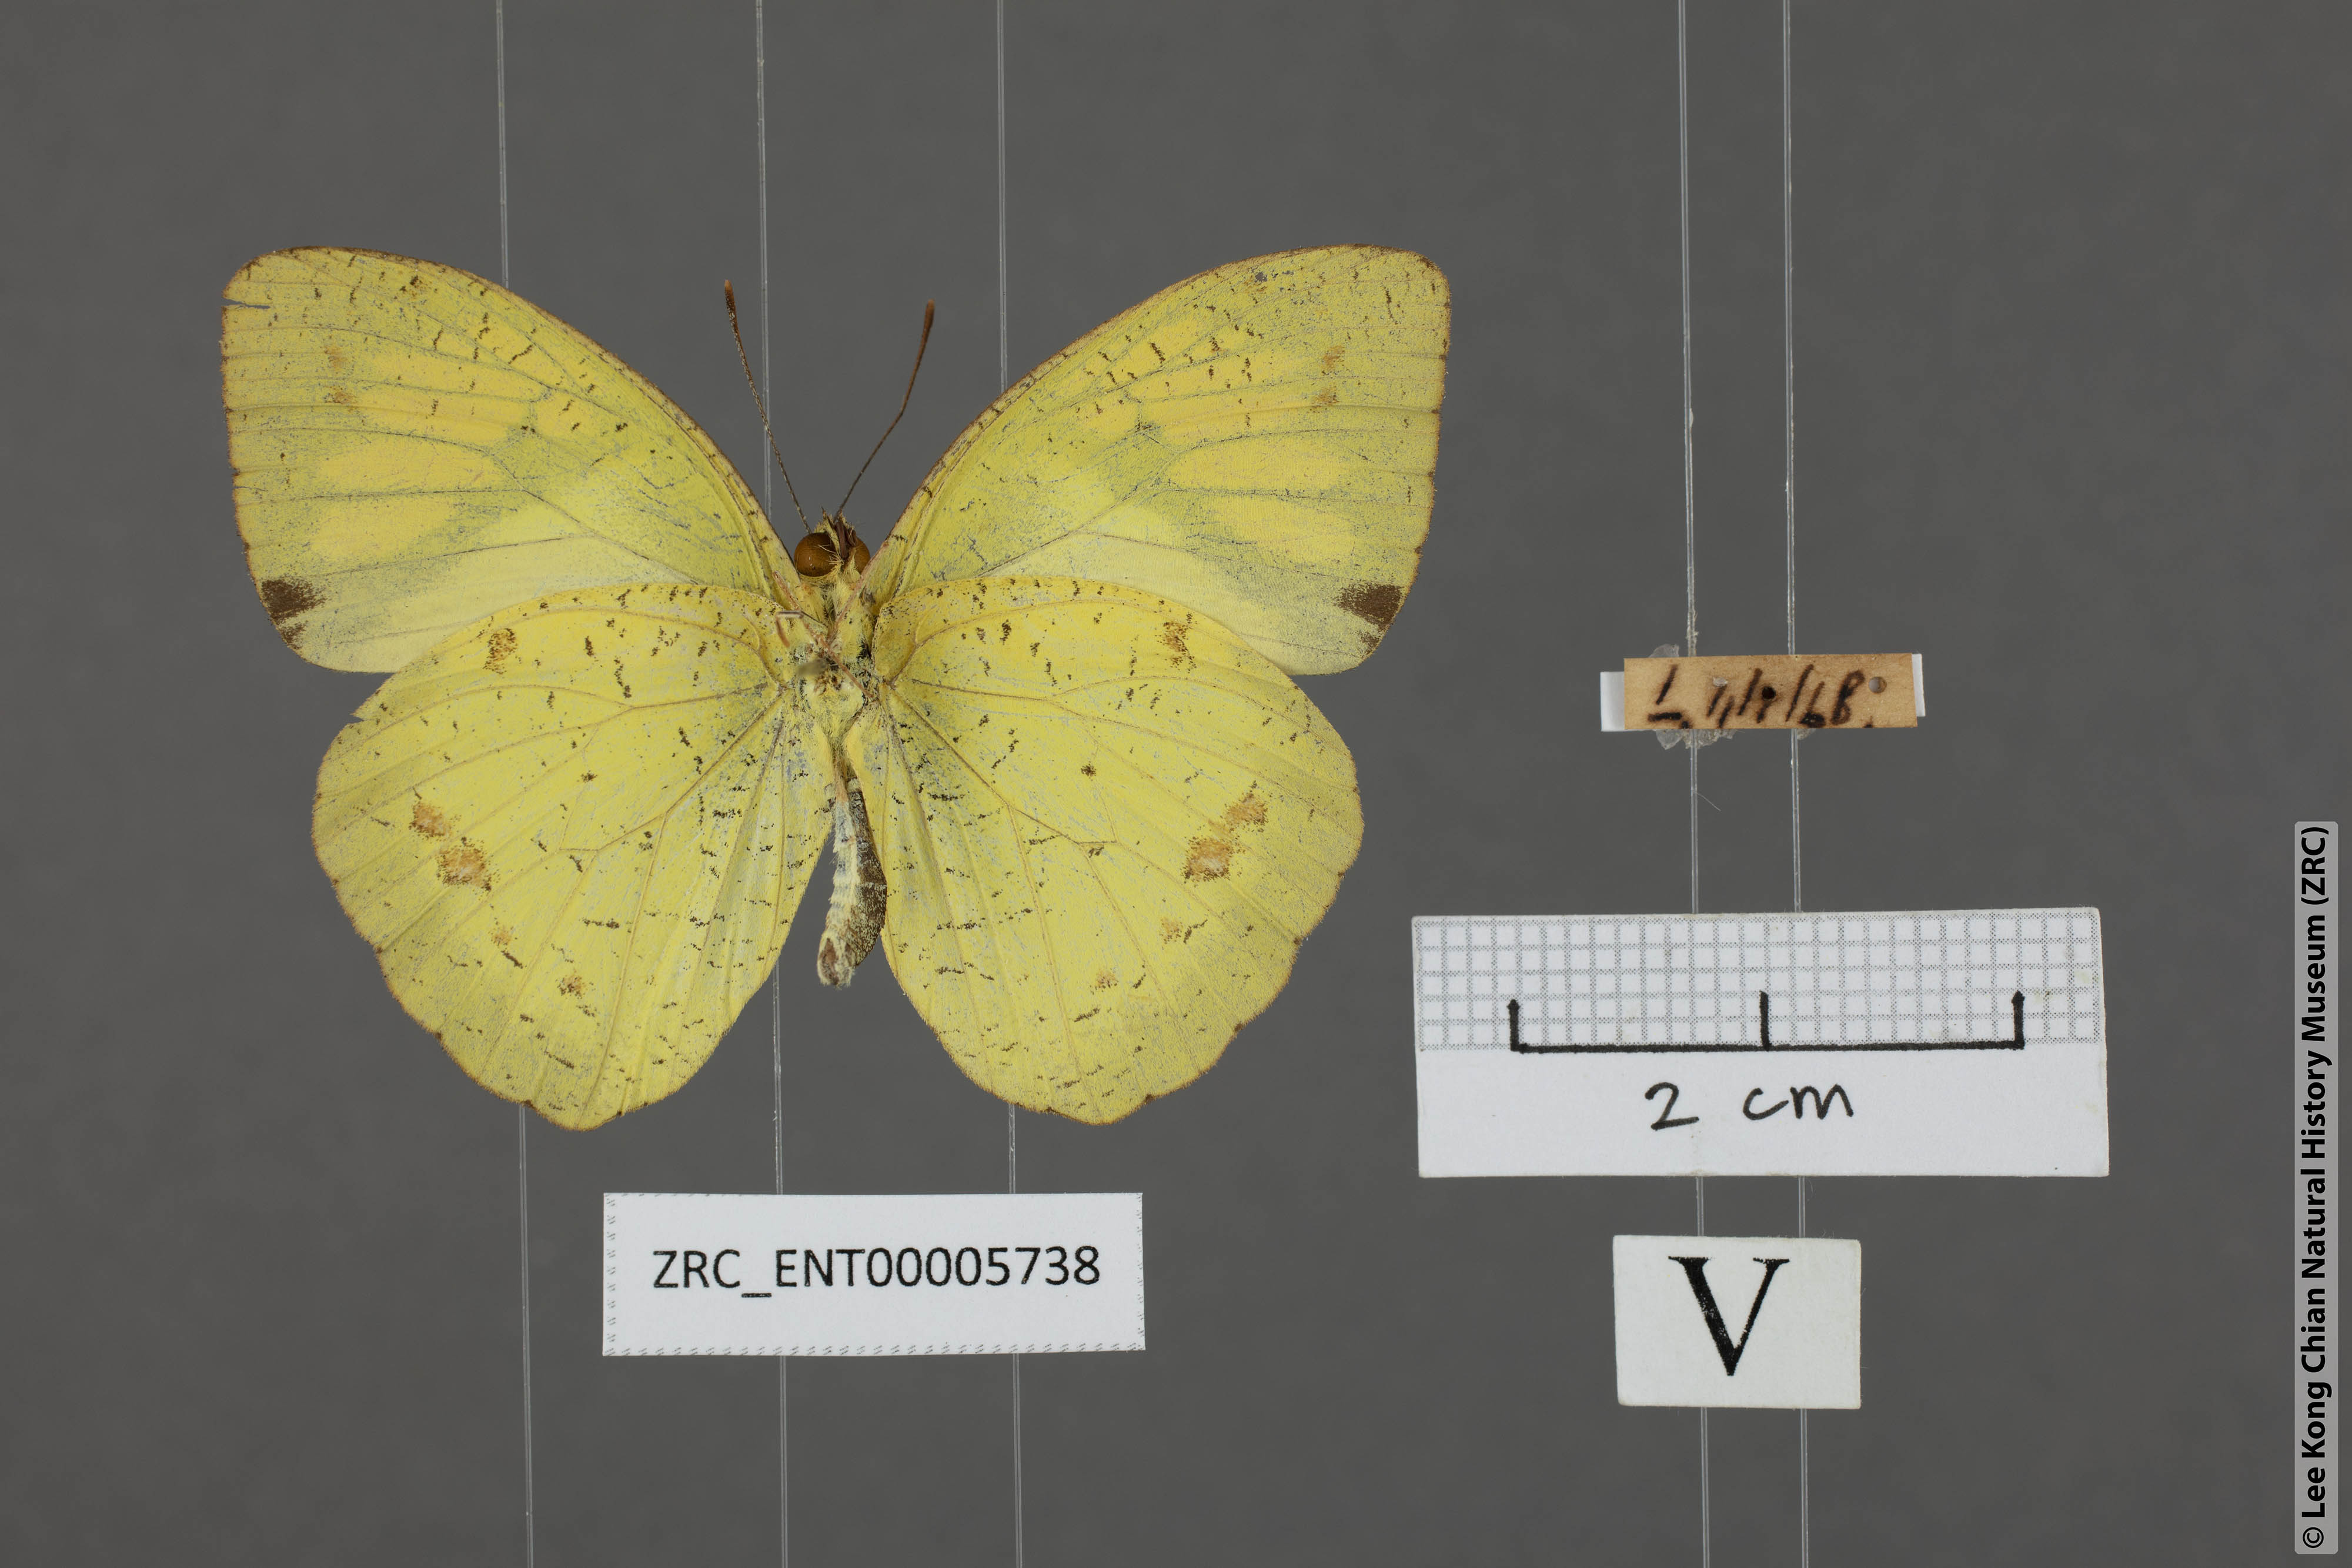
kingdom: Animalia
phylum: Arthropoda
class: Insecta
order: Lepidoptera
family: Pieridae
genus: Ixias
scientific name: Ixias pyrene
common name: Yellow orange tip
